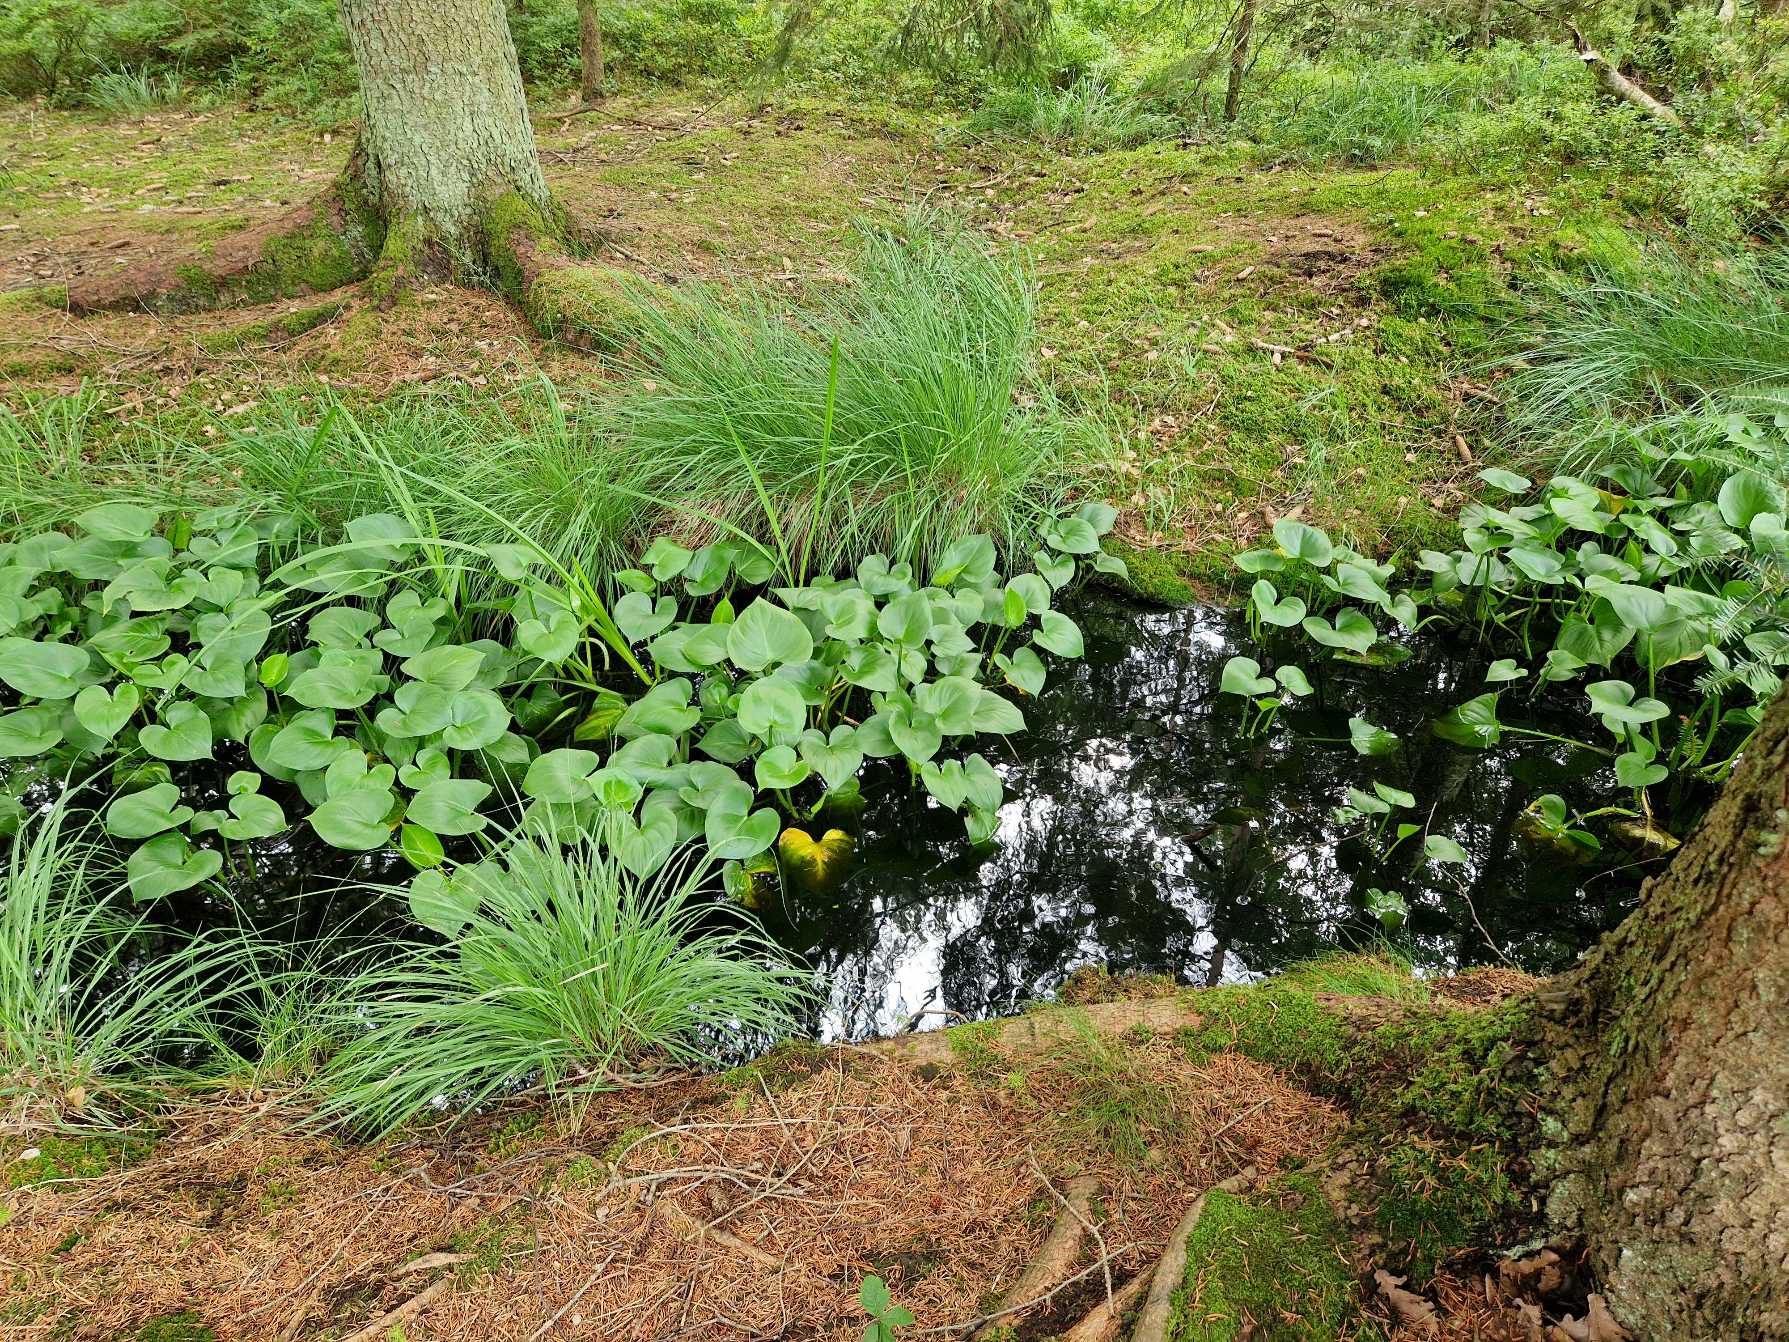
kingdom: Plantae
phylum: Tracheophyta
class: Liliopsida
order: Alismatales
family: Araceae
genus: Calla
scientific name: Calla palustris
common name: Kærmysse
